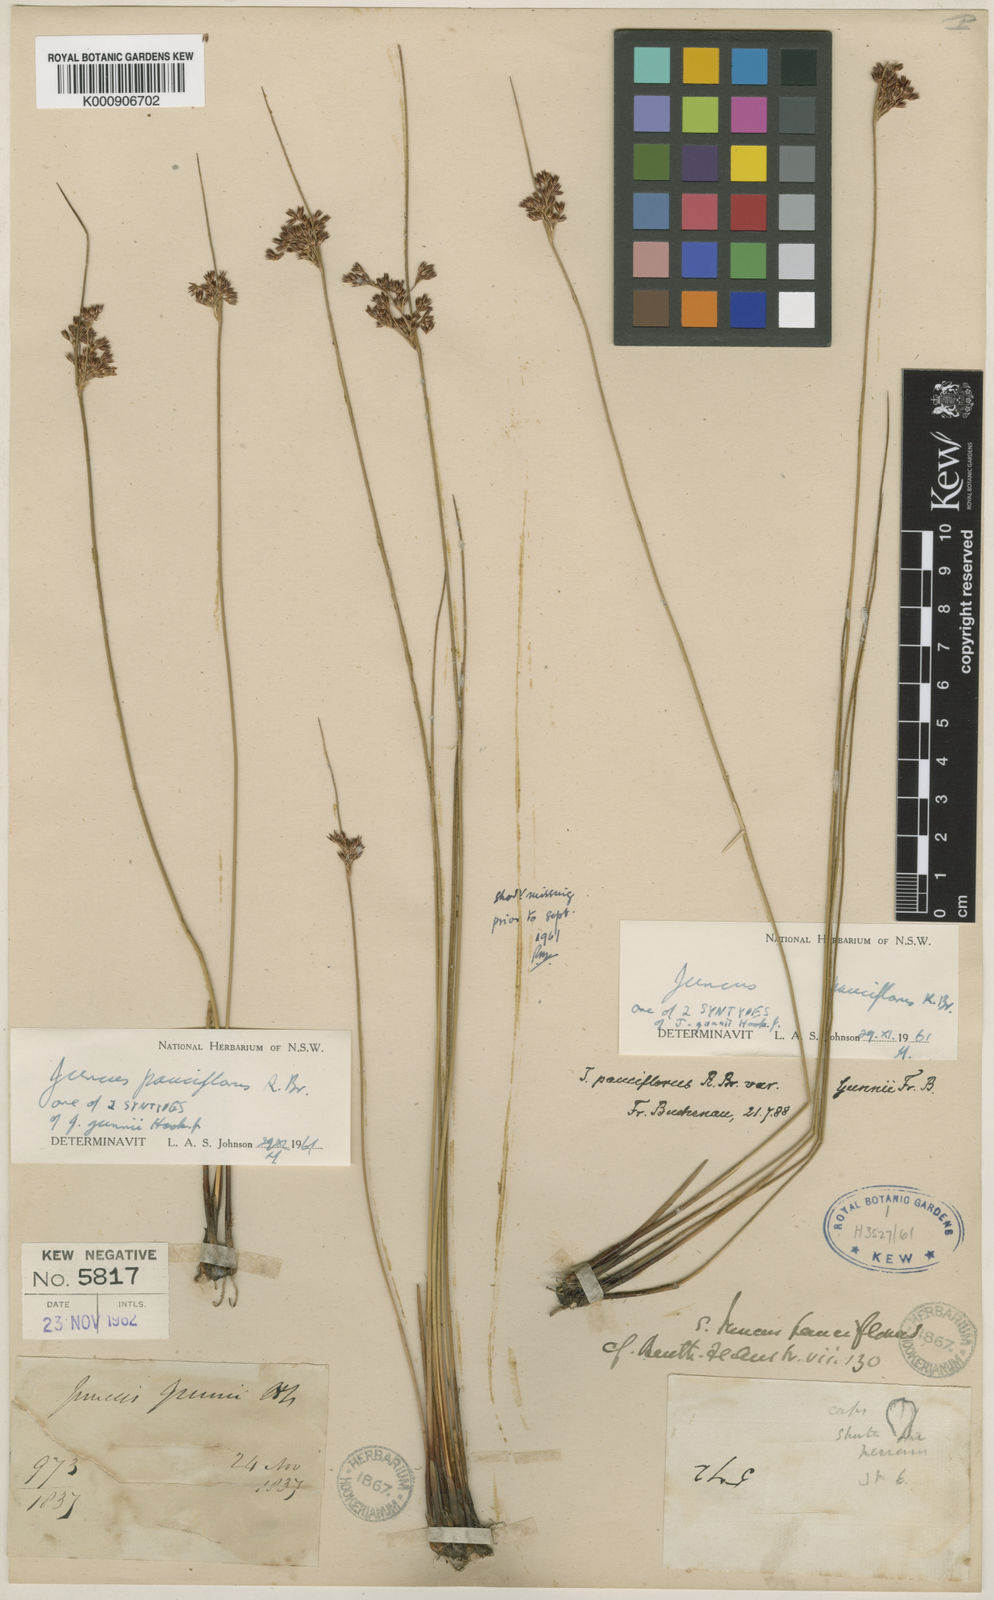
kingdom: Plantae
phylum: Tracheophyta
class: Liliopsida
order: Poales
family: Juncaceae
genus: Juncus
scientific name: Juncus pauciflorus
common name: Loose-flowered rush
